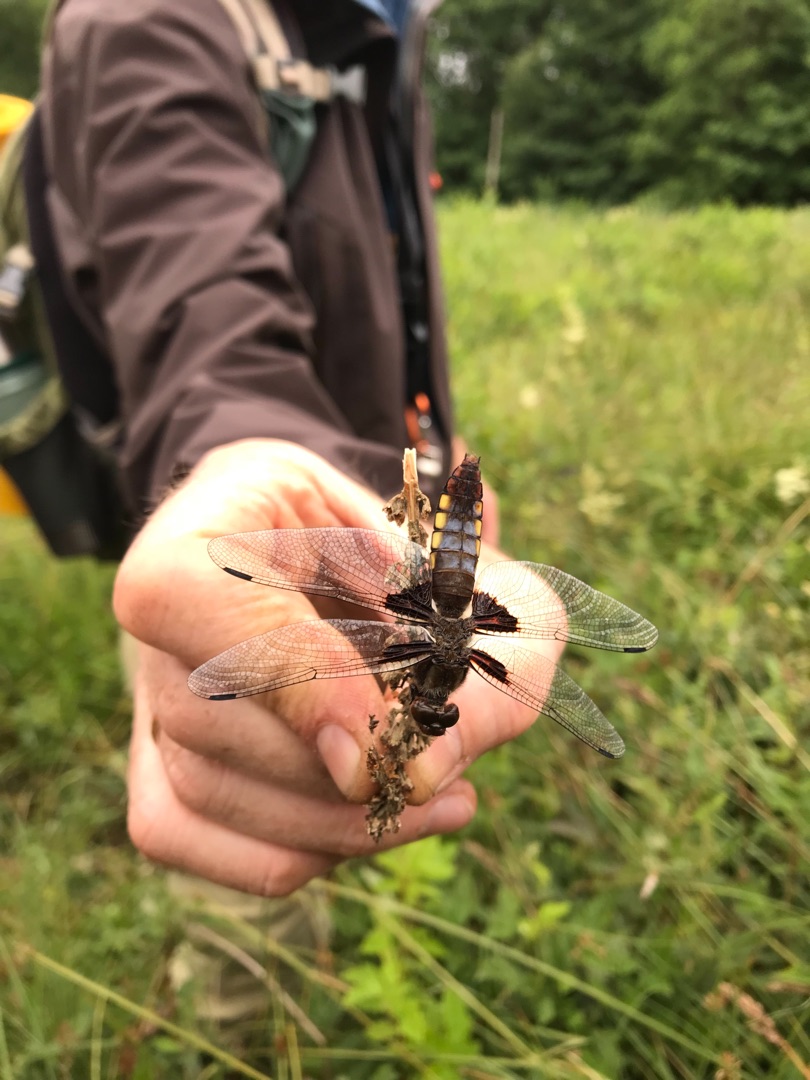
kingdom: Animalia
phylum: Arthropoda
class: Insecta
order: Odonata
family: Libellulidae
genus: Libellula
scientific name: Libellula depressa
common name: Blå libel
